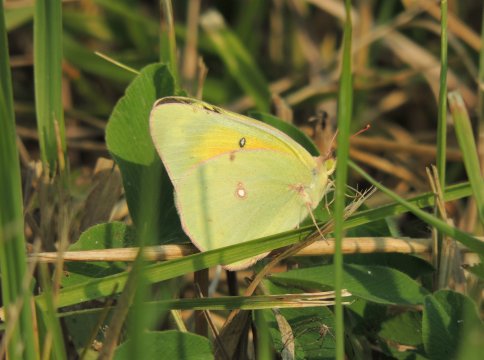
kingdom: Animalia
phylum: Arthropoda
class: Insecta
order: Lepidoptera
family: Pieridae
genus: Colias
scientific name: Colias eurytheme
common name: Orange Sulphur
